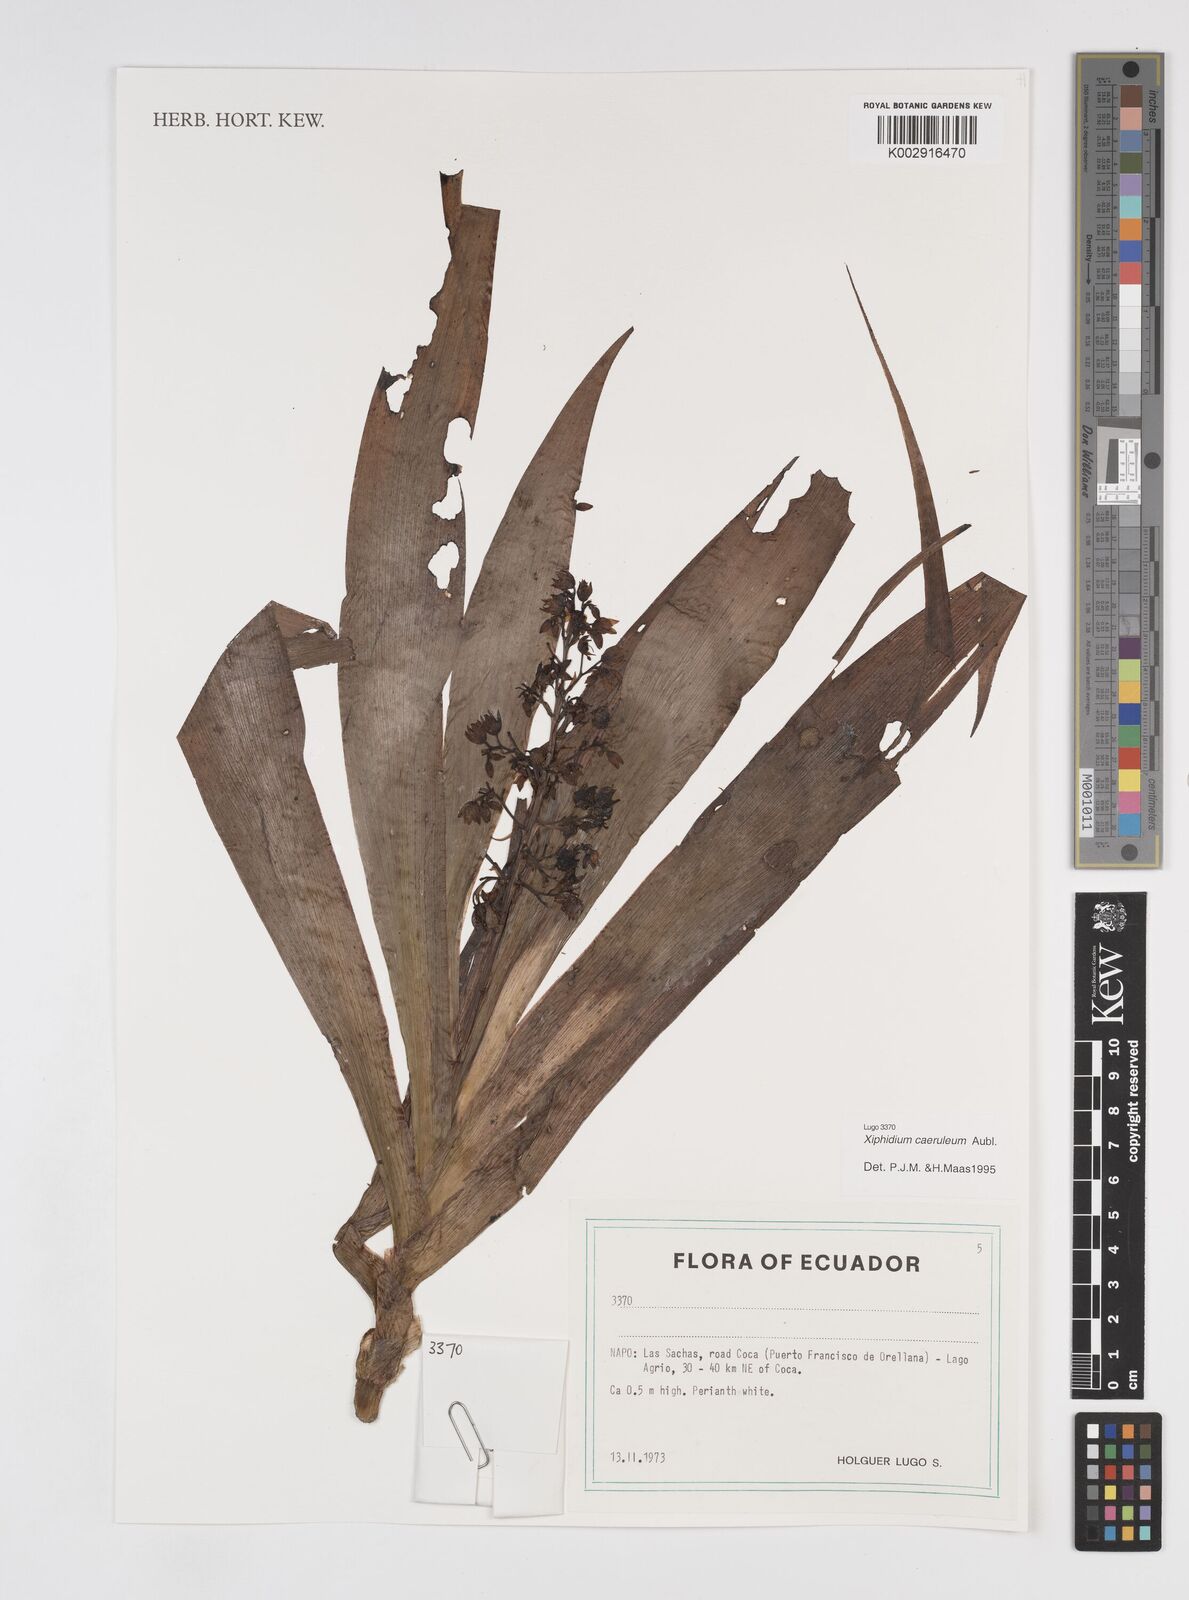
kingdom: Plantae
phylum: Tracheophyta
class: Liliopsida
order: Commelinales
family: Haemodoraceae
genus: Xiphidium
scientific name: Xiphidium caeruleum
